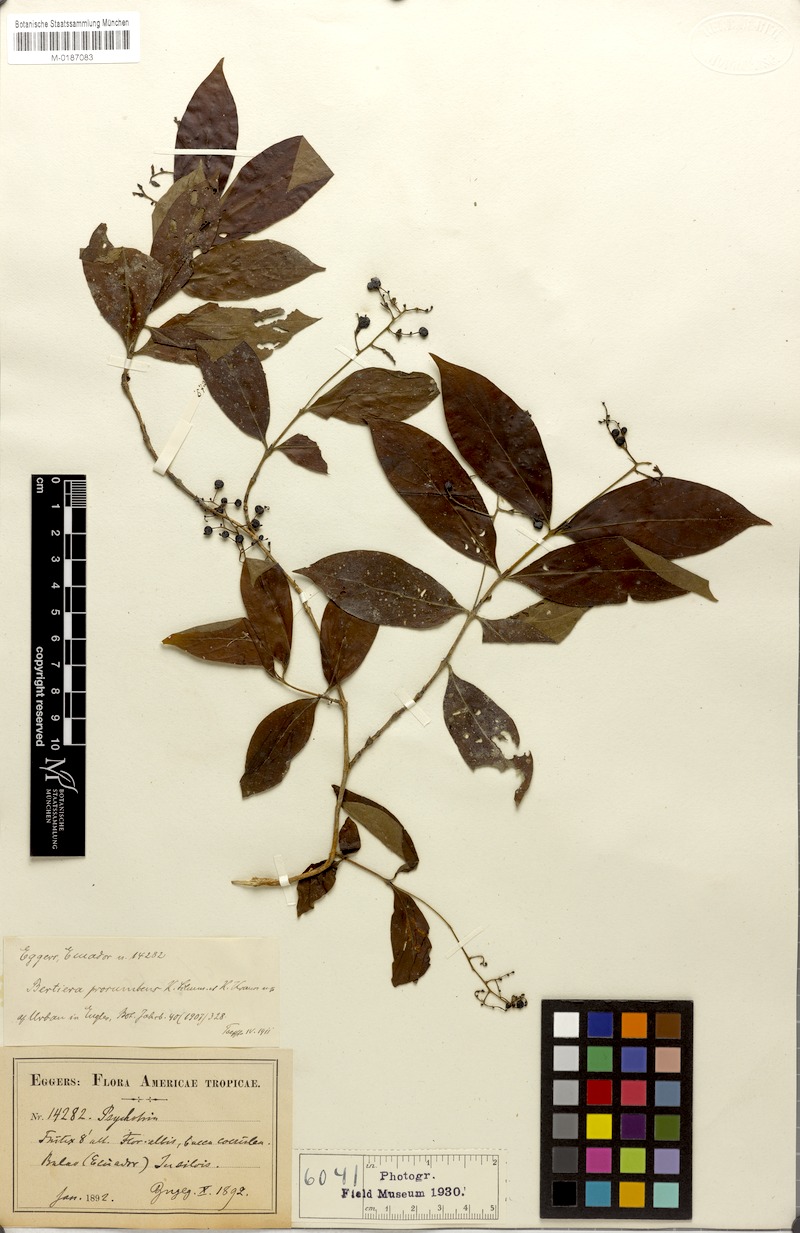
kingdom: Plantae
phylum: Tracheophyta
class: Magnoliopsida
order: Gentianales
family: Rubiaceae
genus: Bertiera
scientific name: Bertiera procumbens
